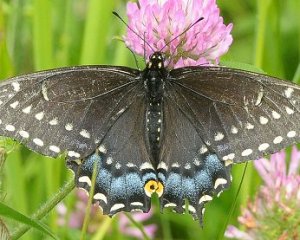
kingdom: Animalia
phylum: Arthropoda
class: Insecta
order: Lepidoptera
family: Papilionidae
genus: Papilio
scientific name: Papilio polyxenes
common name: Black Swallowtail
